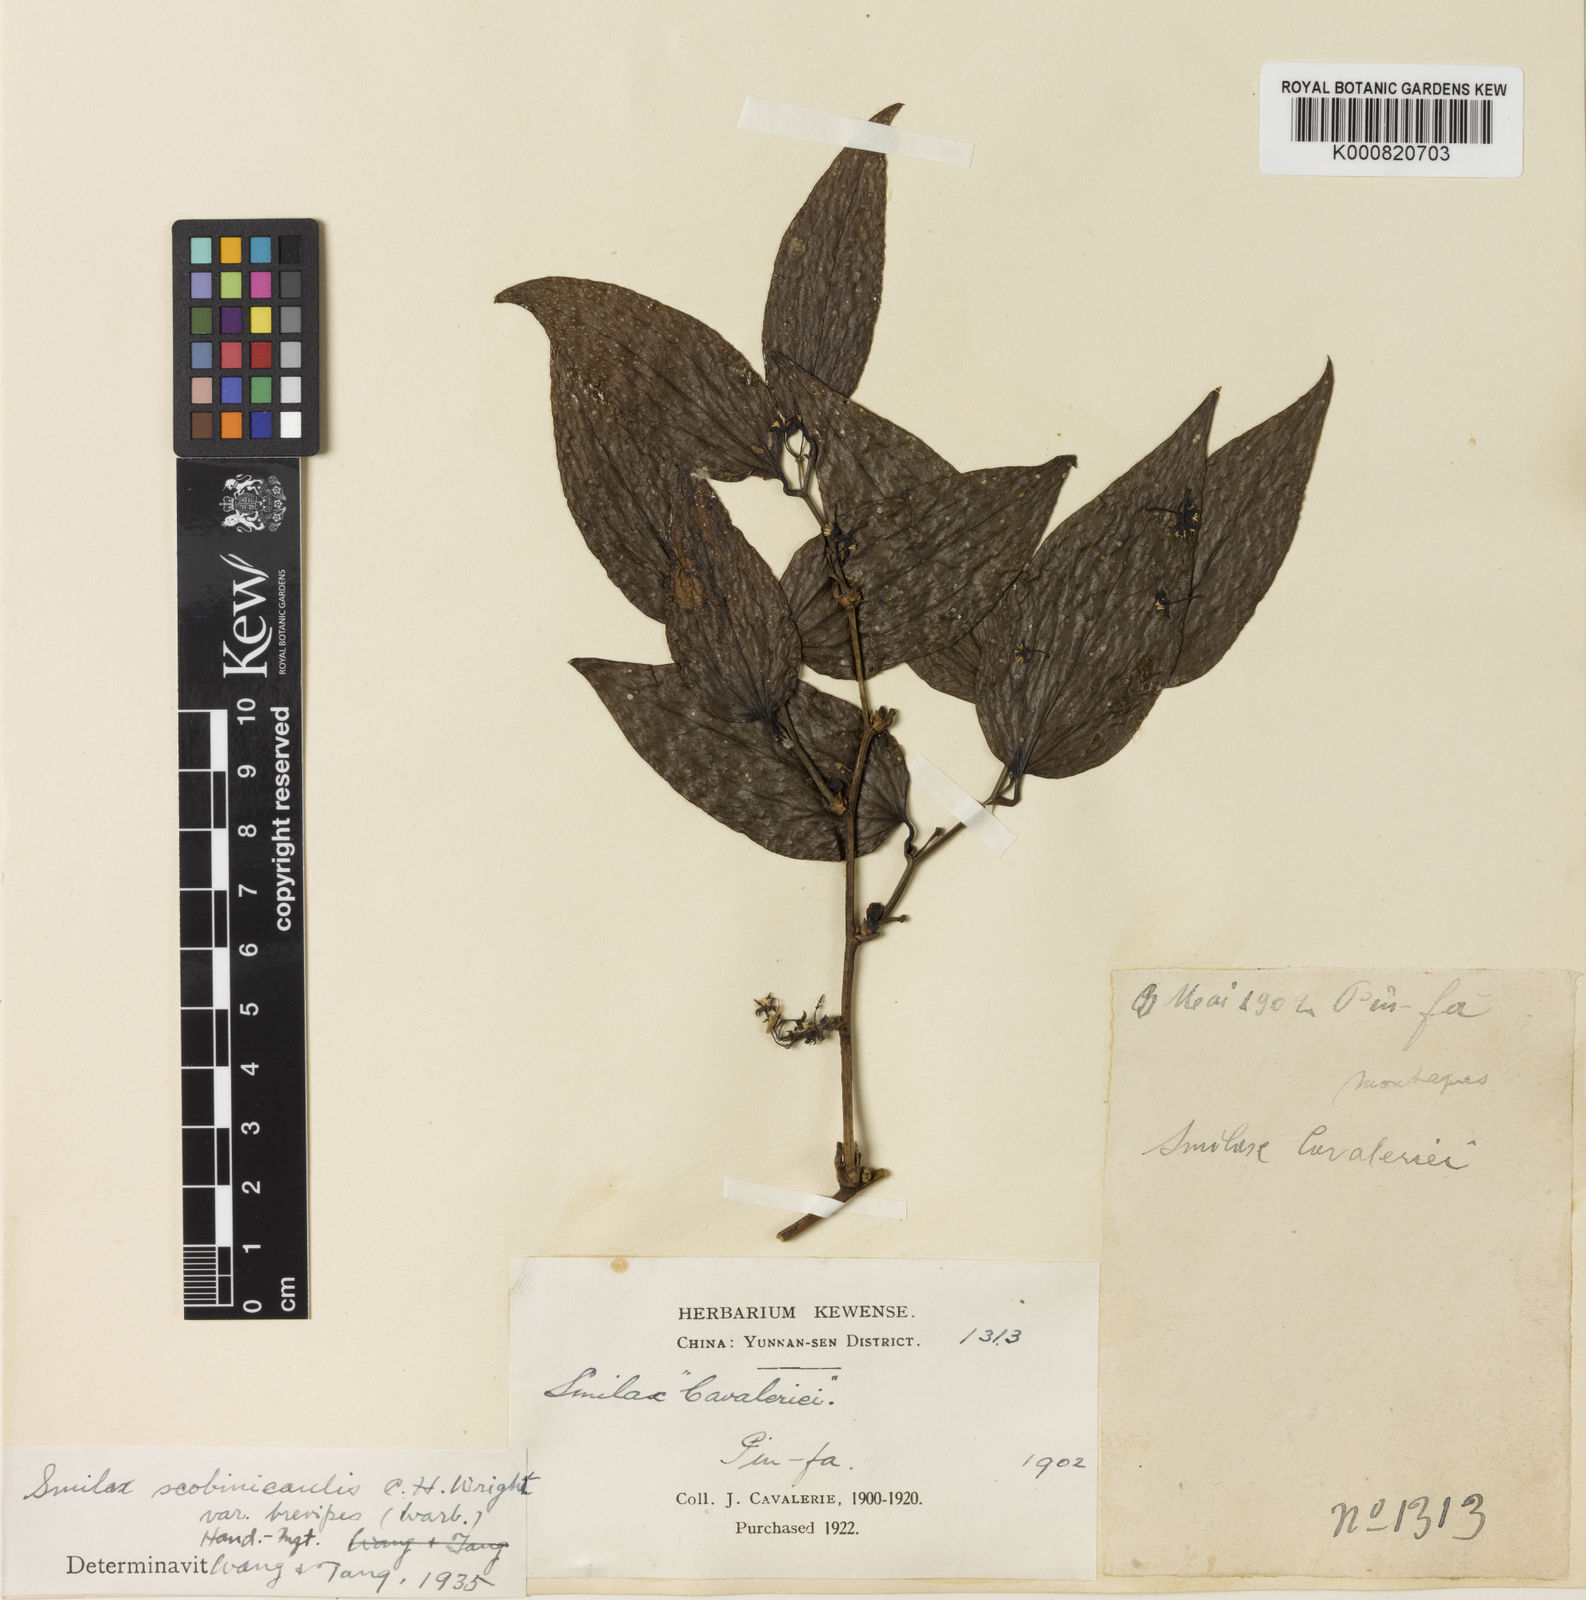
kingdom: Plantae
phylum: Tracheophyta
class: Liliopsida
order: Liliales
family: Smilacaceae
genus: Smilax
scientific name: Smilax scobinicaulis
